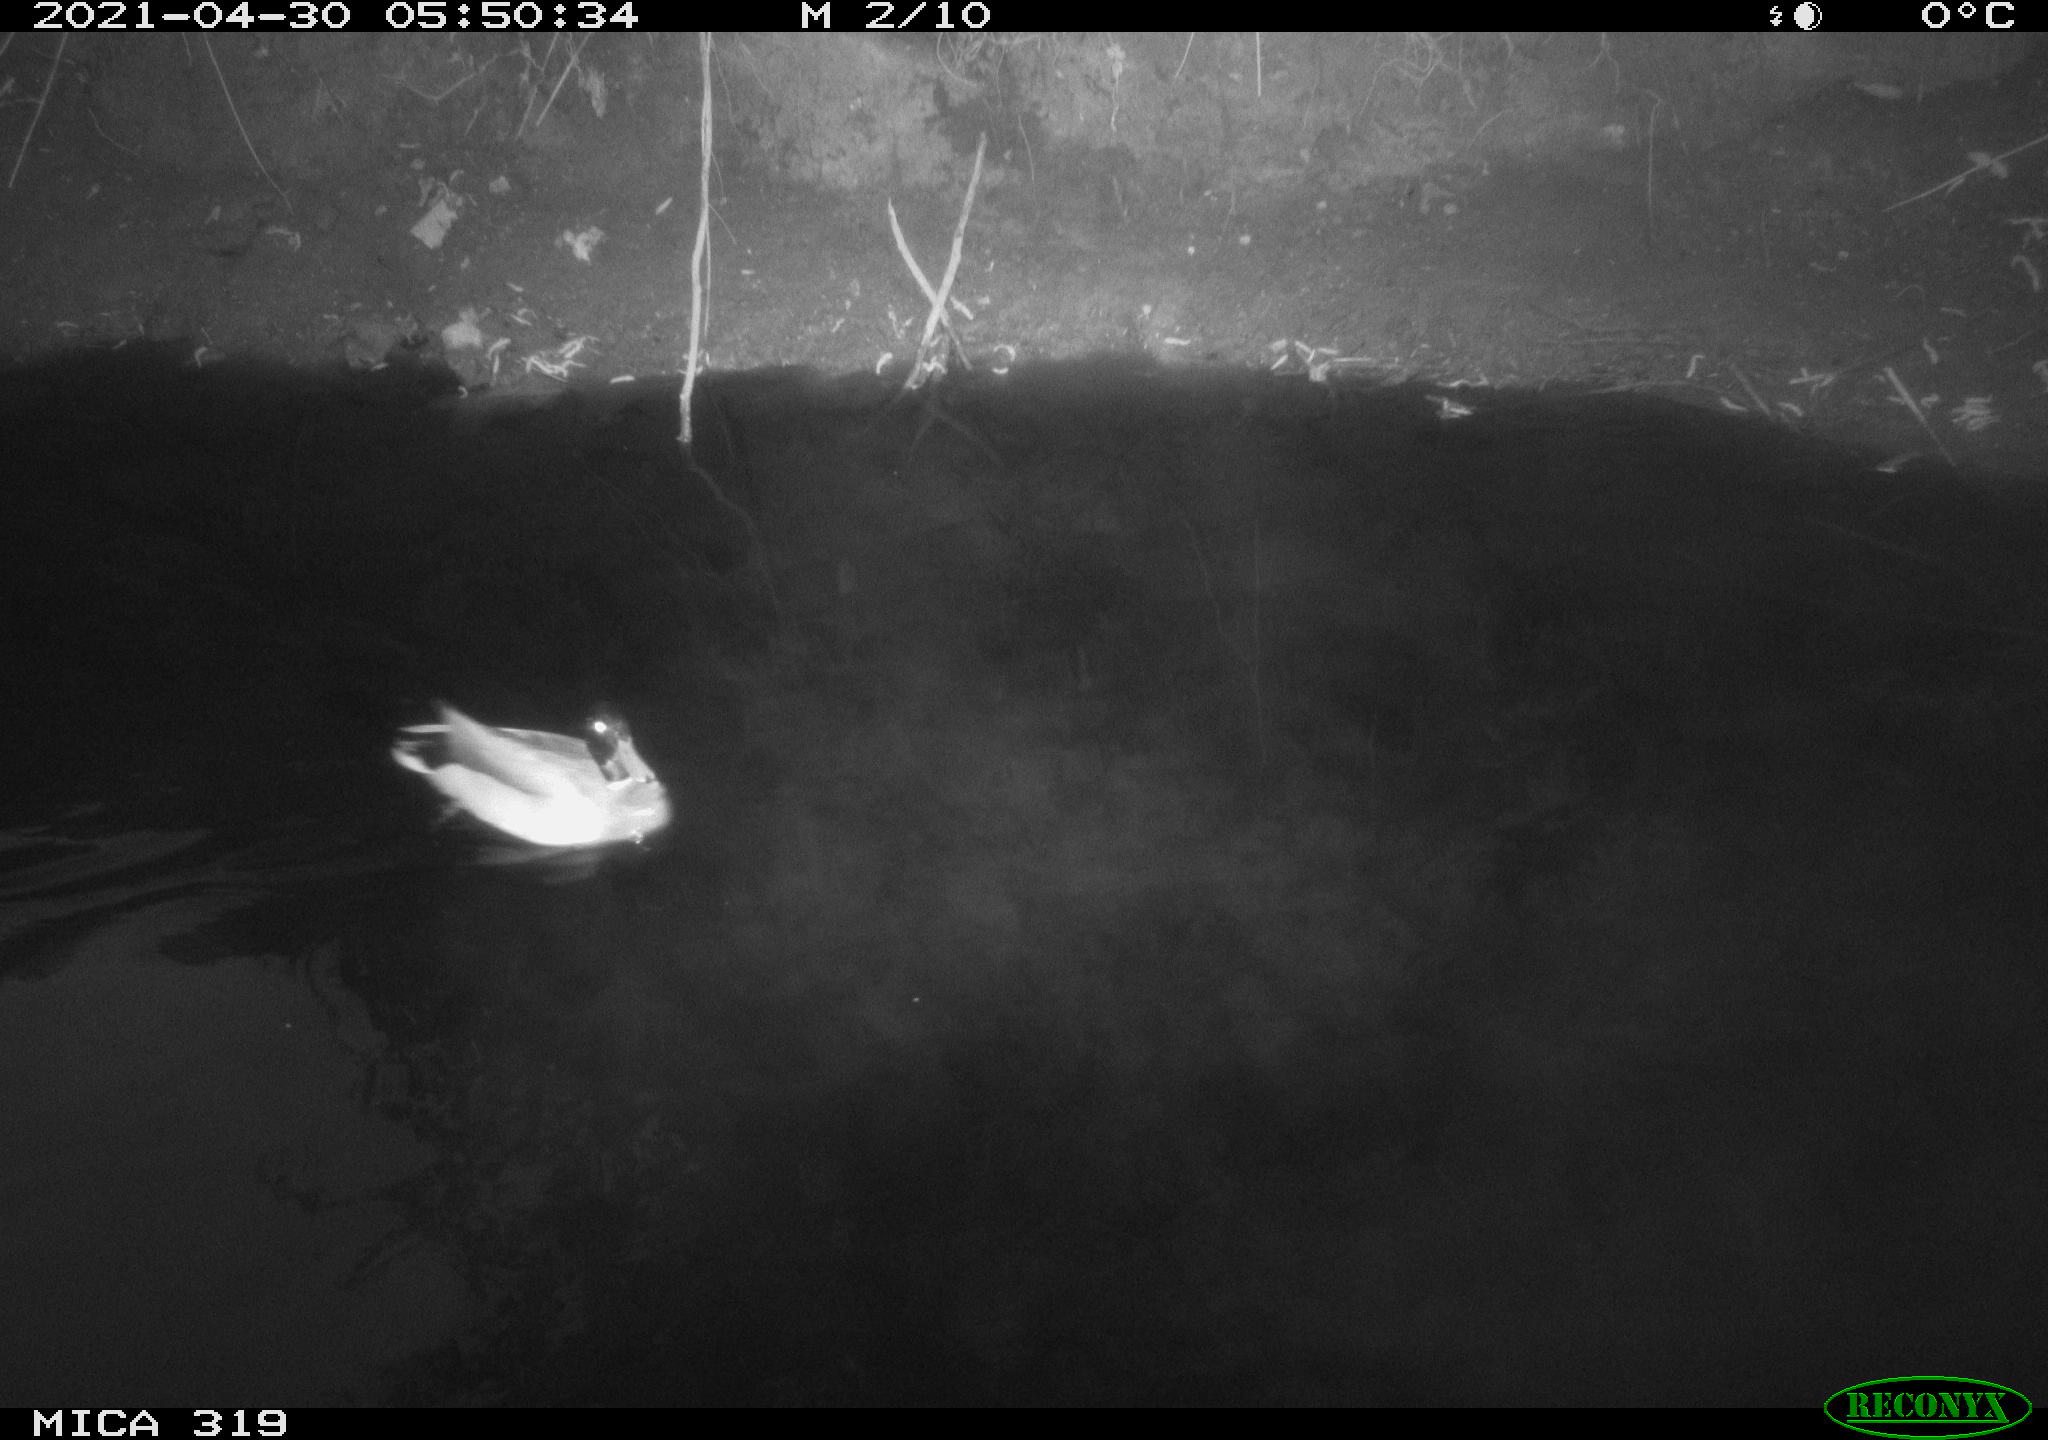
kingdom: Animalia
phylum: Chordata
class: Aves
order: Anseriformes
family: Anatidae
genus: Anas
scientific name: Anas platyrhynchos
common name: Mallard
